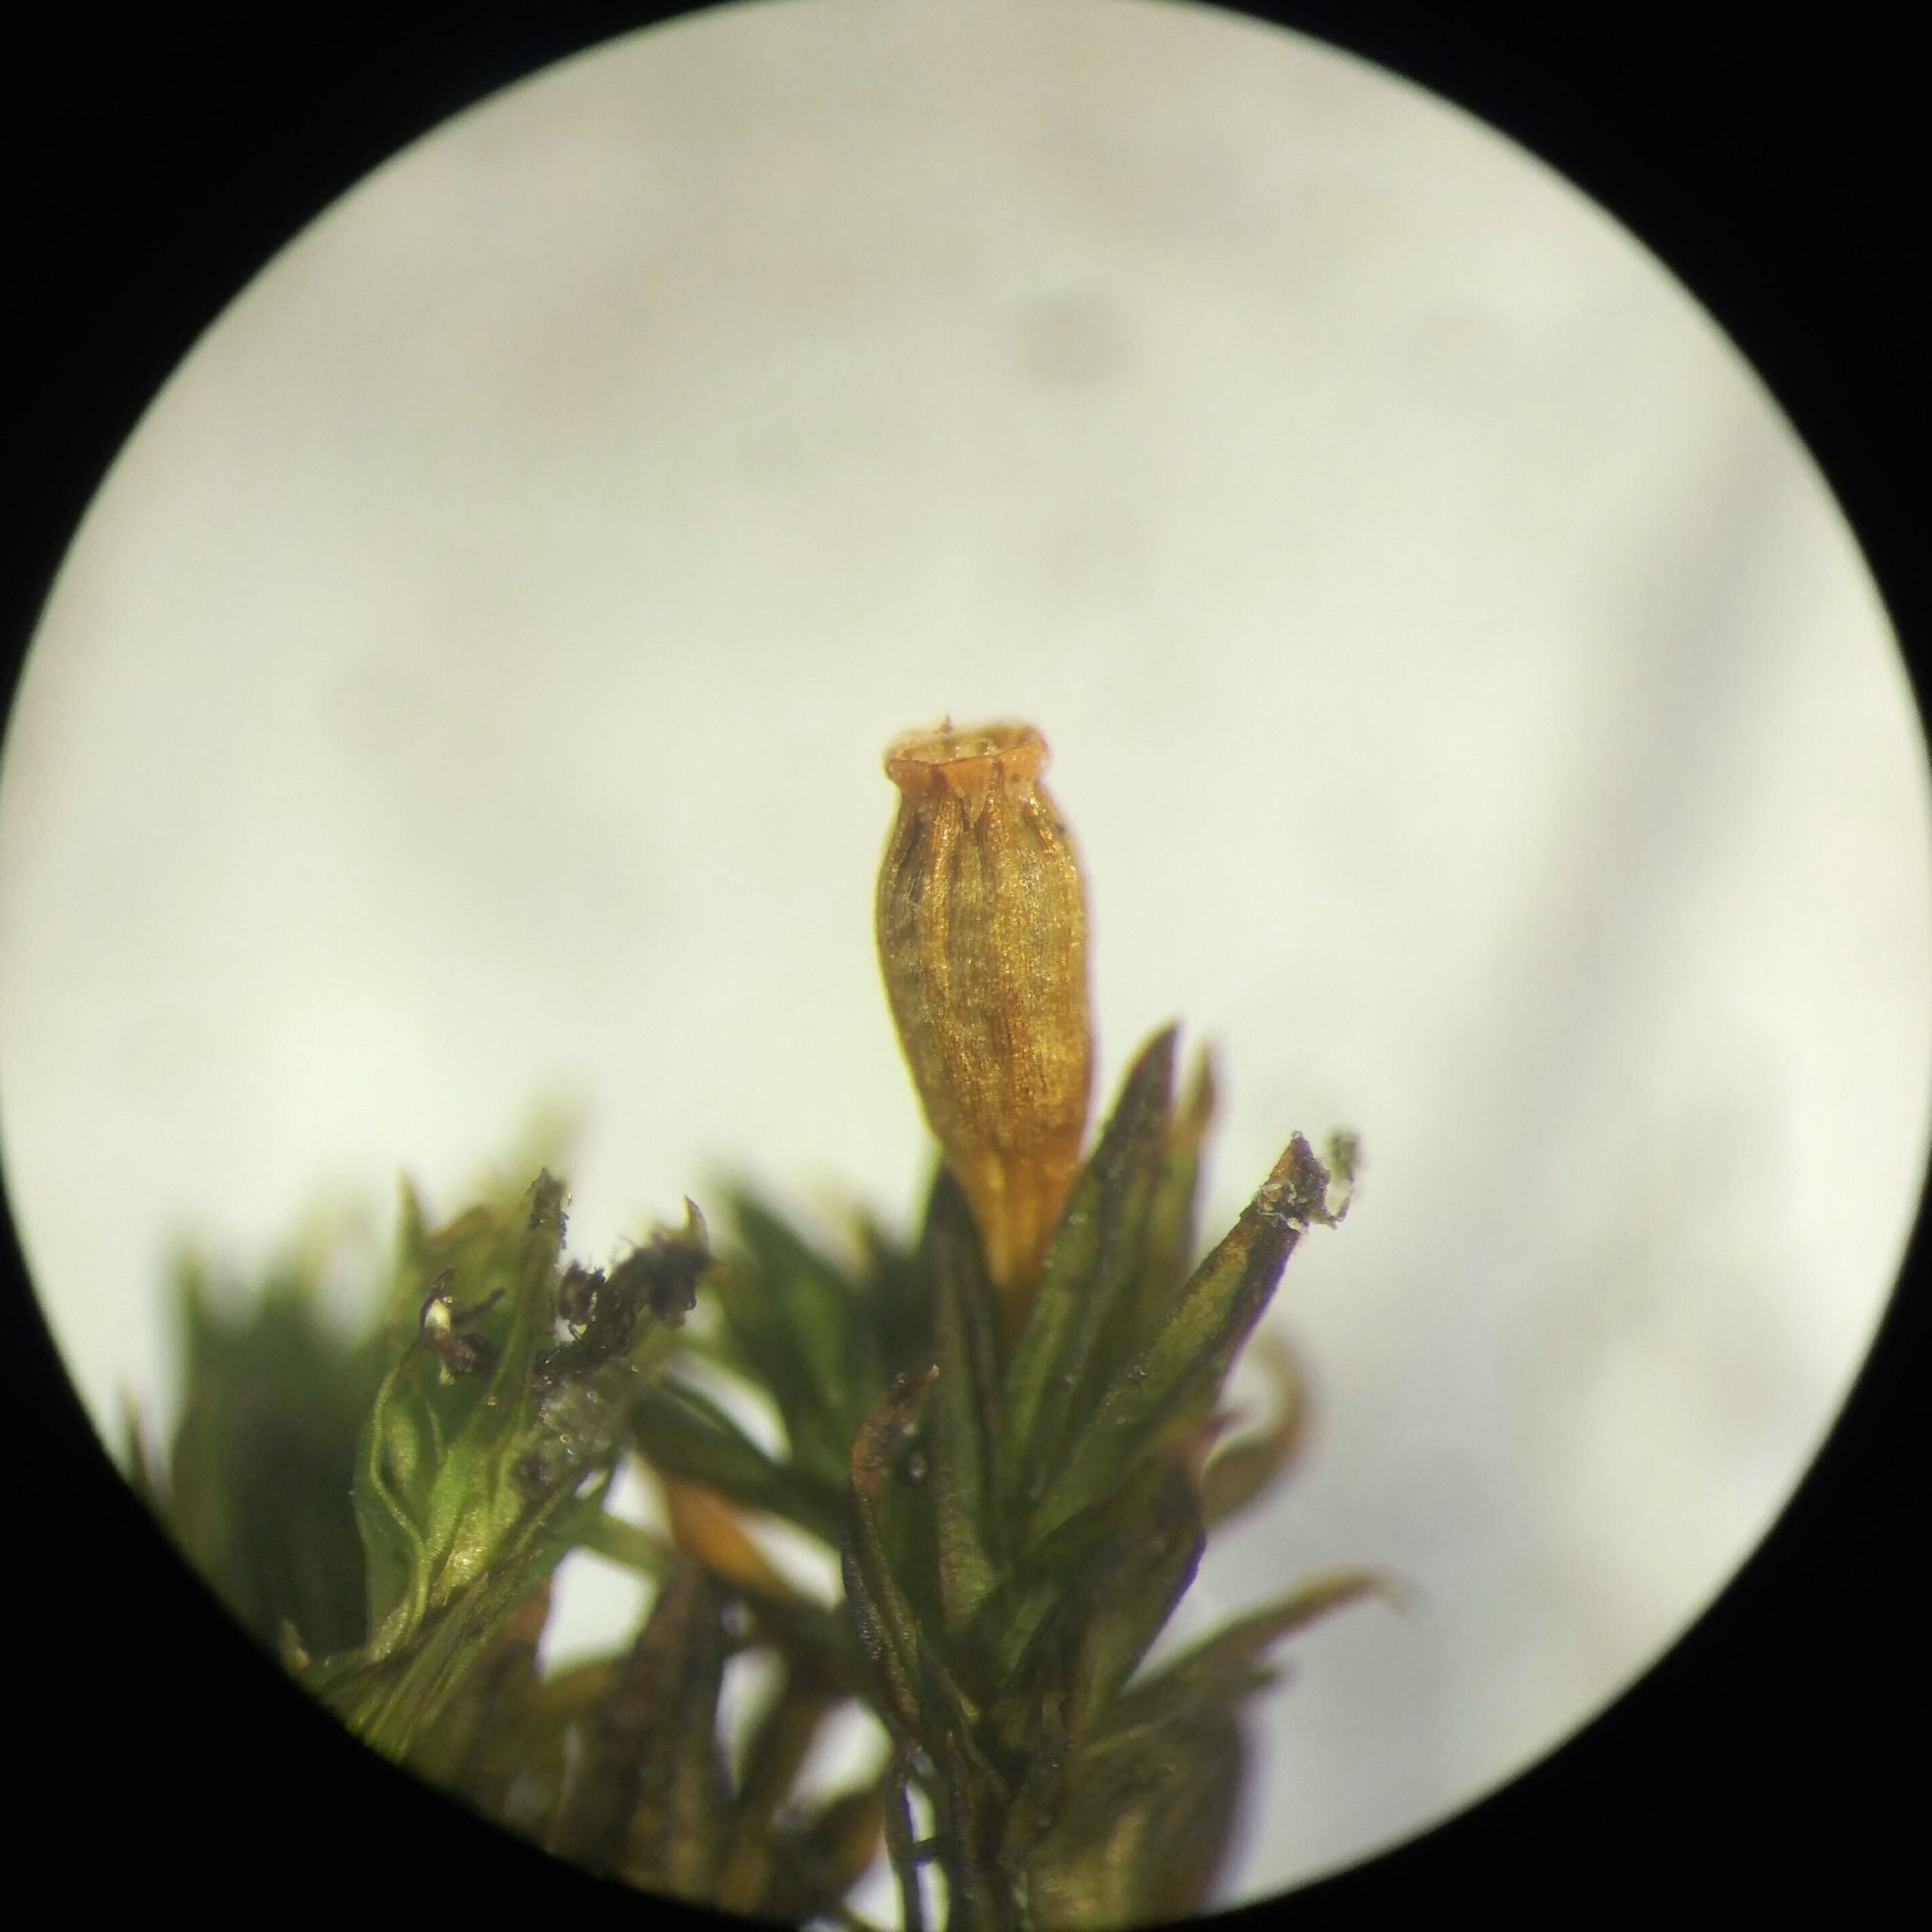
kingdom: Plantae
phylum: Bryophyta
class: Bryopsida
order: Orthotrichales
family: Orthotrichaceae
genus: Orthotrichum
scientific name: Orthotrichum stramineum
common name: Strågul furehætte
